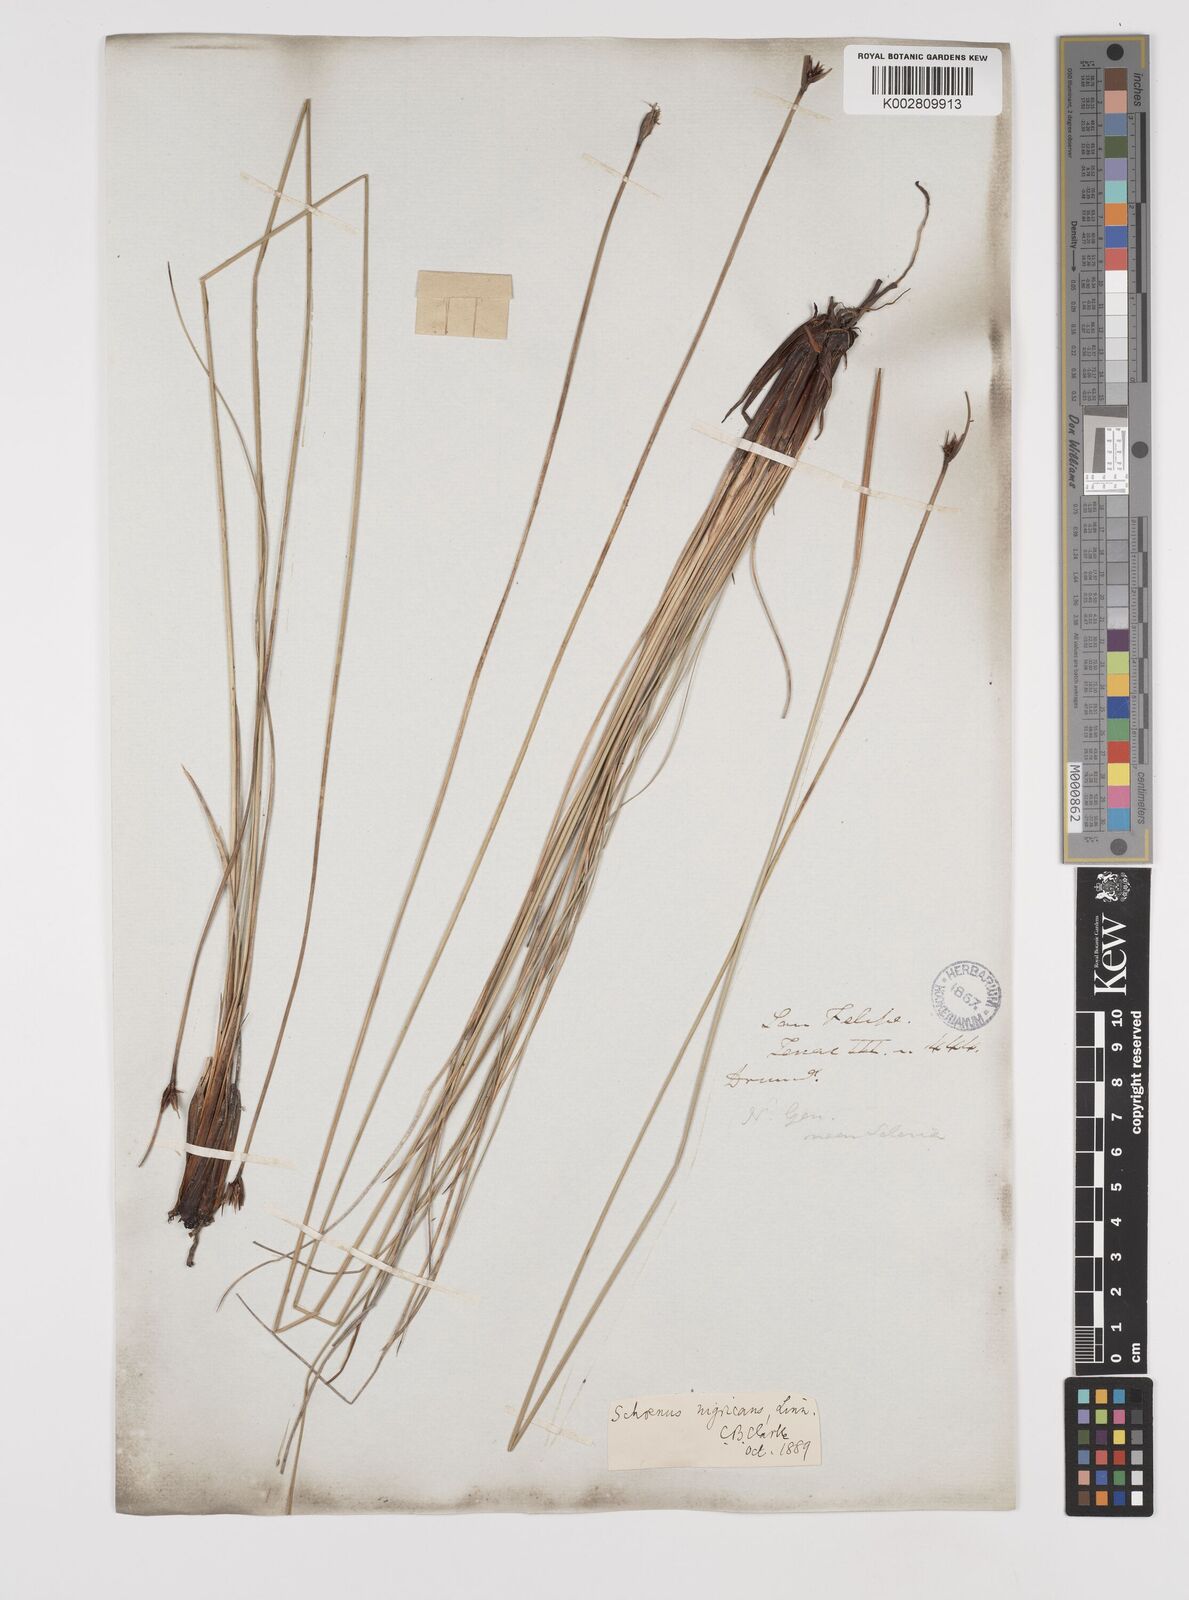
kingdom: Plantae
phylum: Tracheophyta
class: Liliopsida
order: Poales
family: Cyperaceae
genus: Schoenus
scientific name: Schoenus nigricans
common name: Black bog-rush
